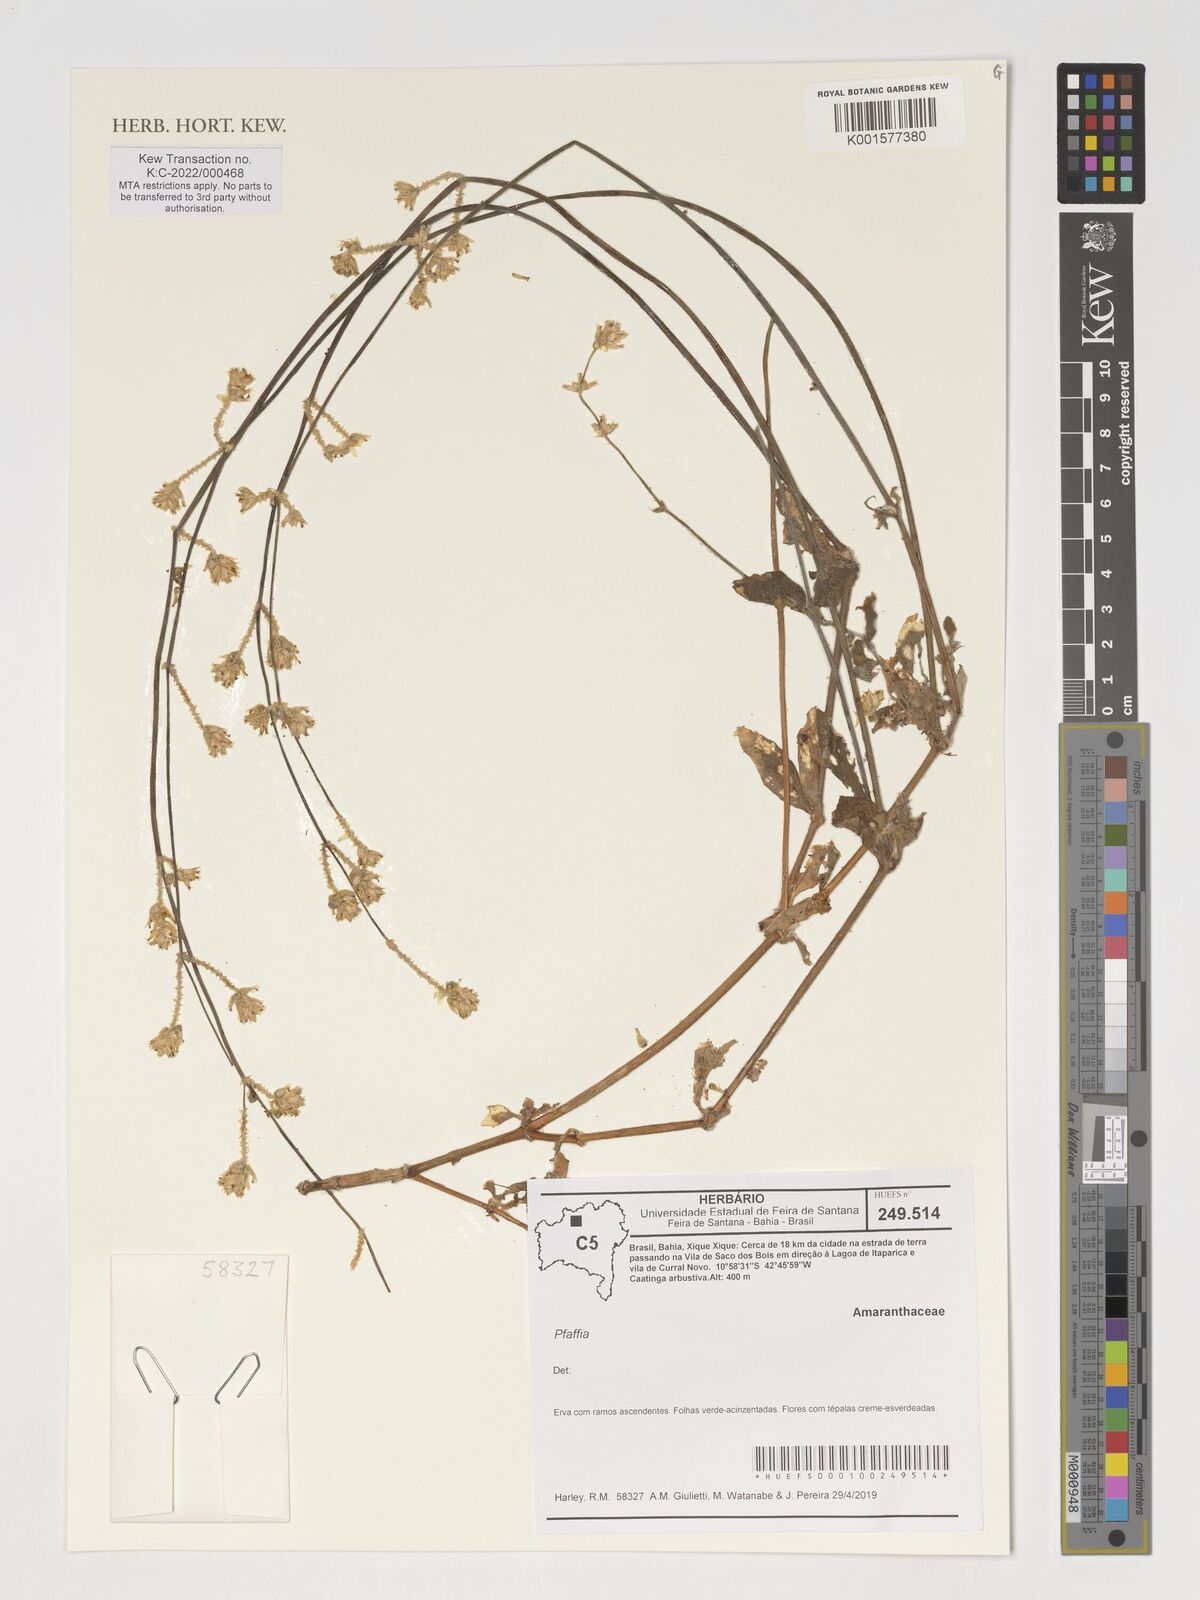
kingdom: Plantae
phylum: Tracheophyta
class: Magnoliopsida
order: Caryophyllales
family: Amaranthaceae
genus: Pfaffia
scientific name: Pfaffia
